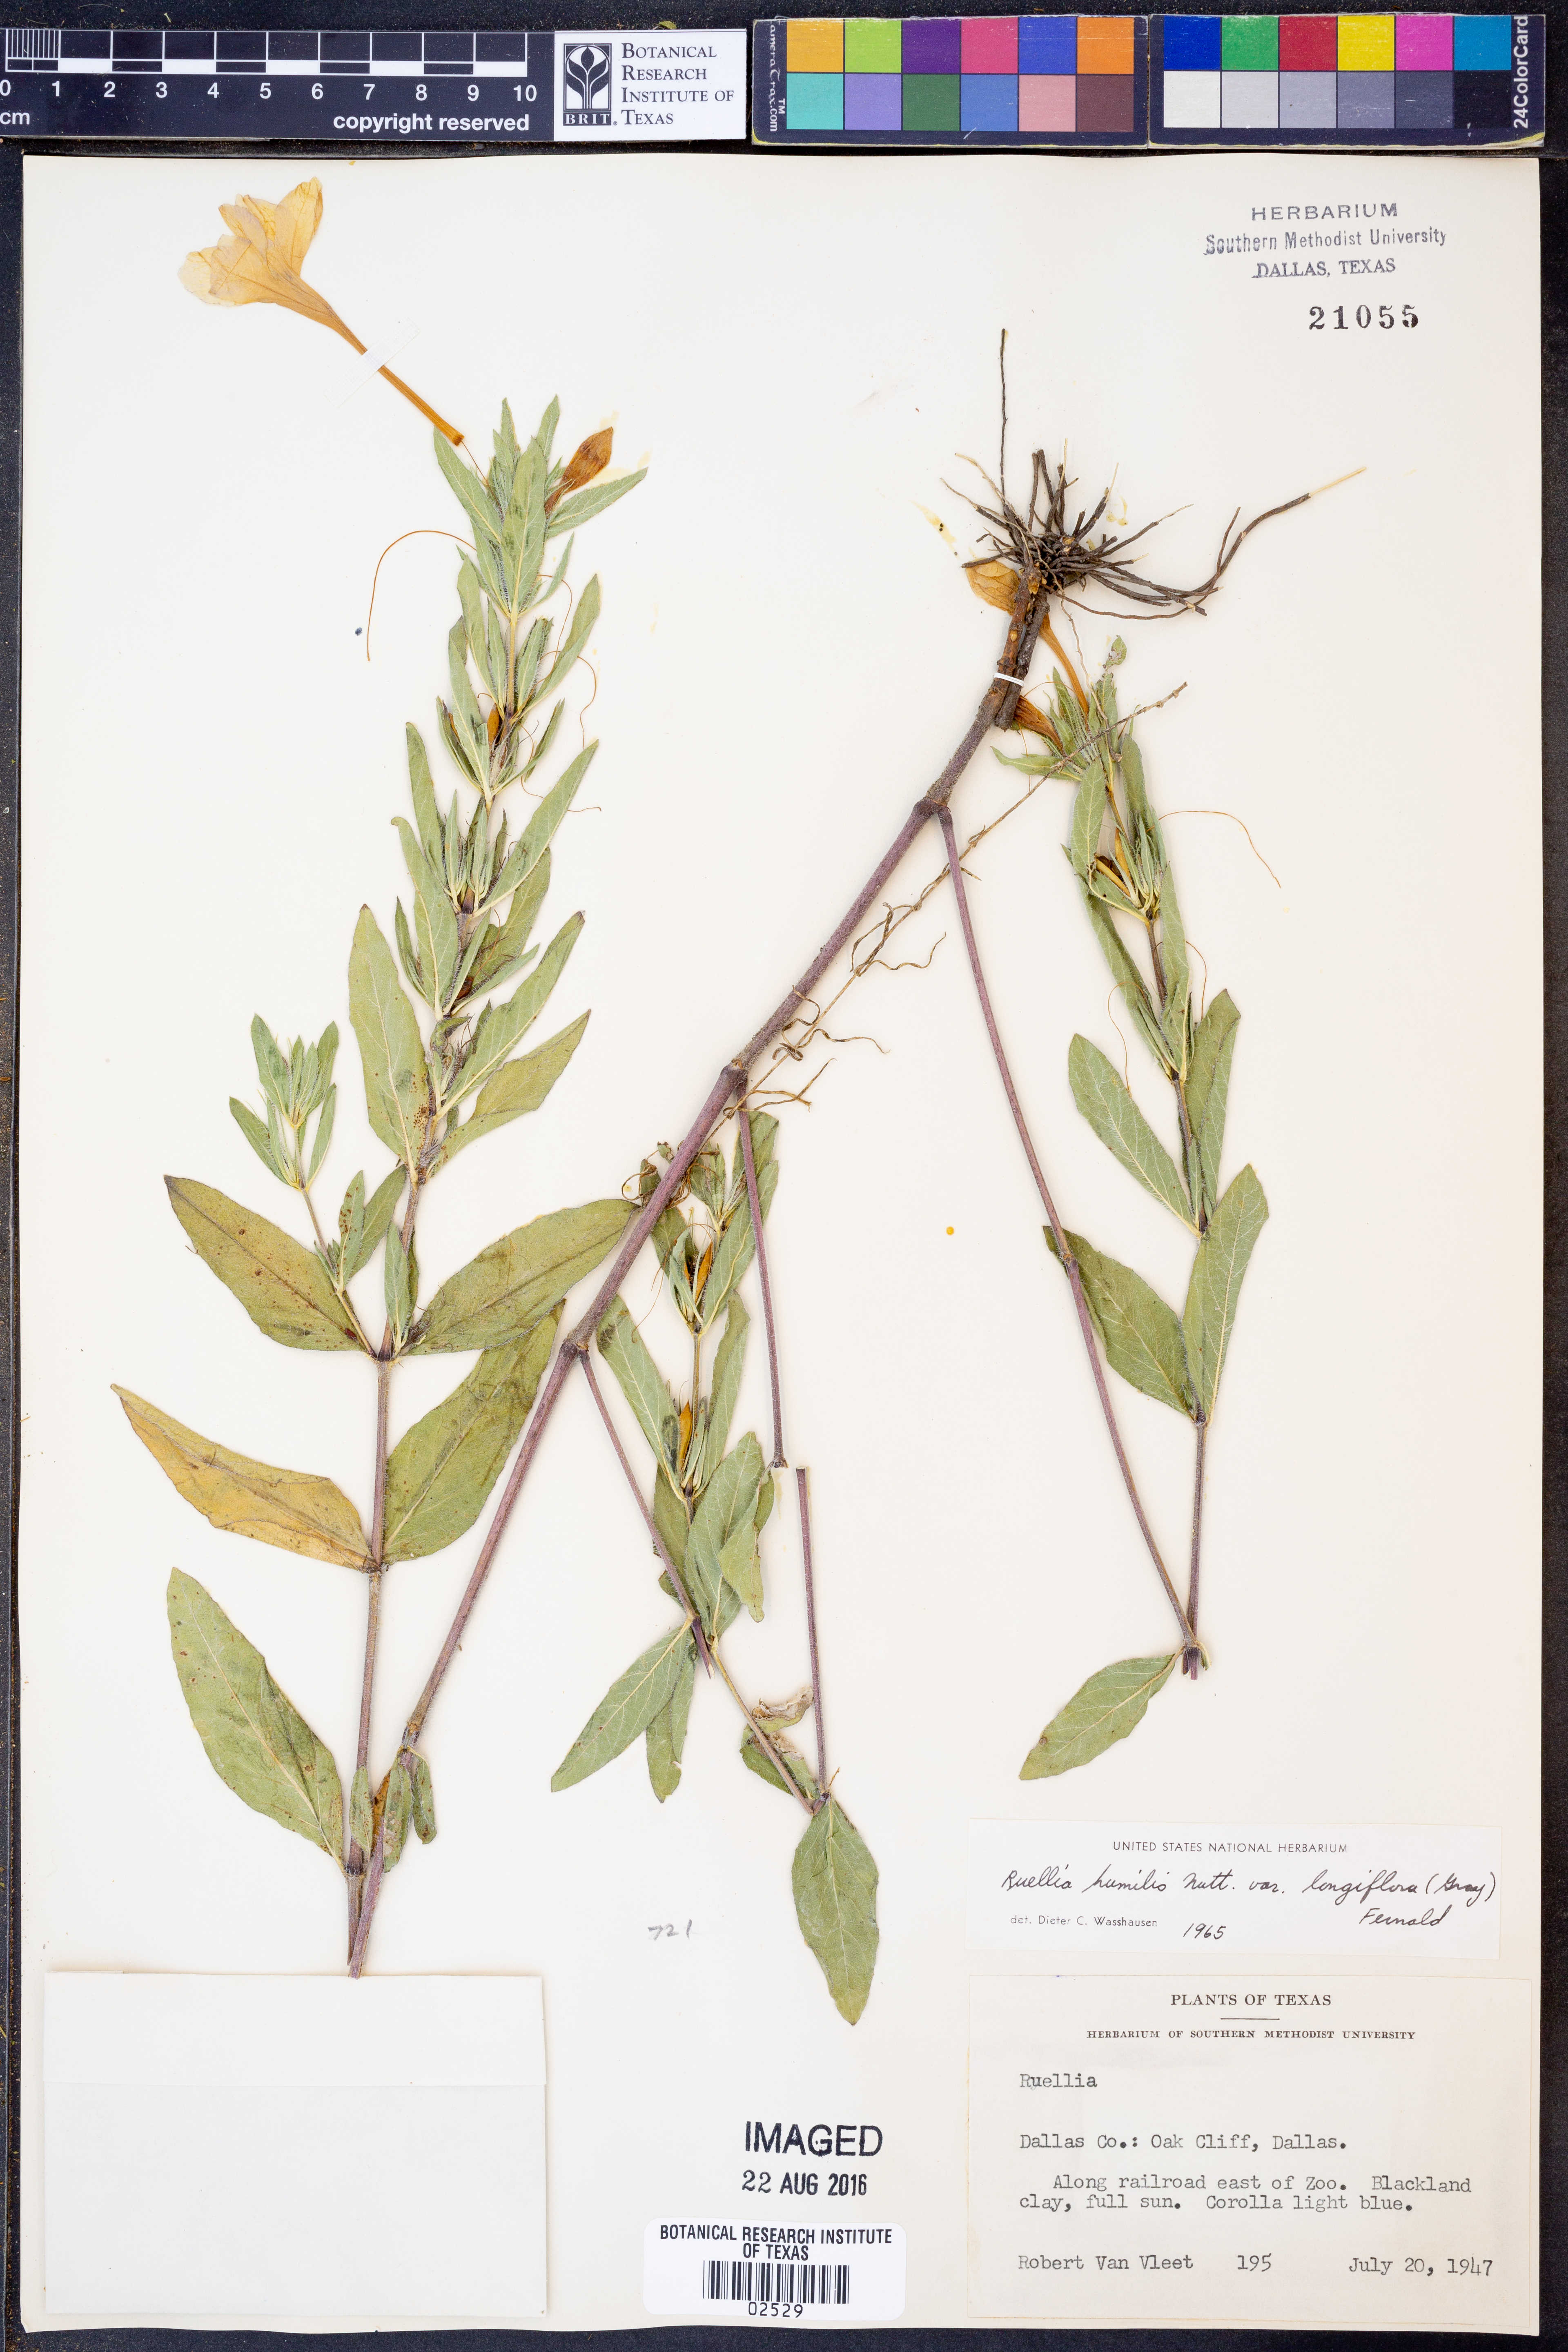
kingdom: Plantae
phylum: Tracheophyta
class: Magnoliopsida
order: Lamiales
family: Acanthaceae
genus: Ruellia
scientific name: Ruellia humilis
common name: Fringe-leaf ruellia
